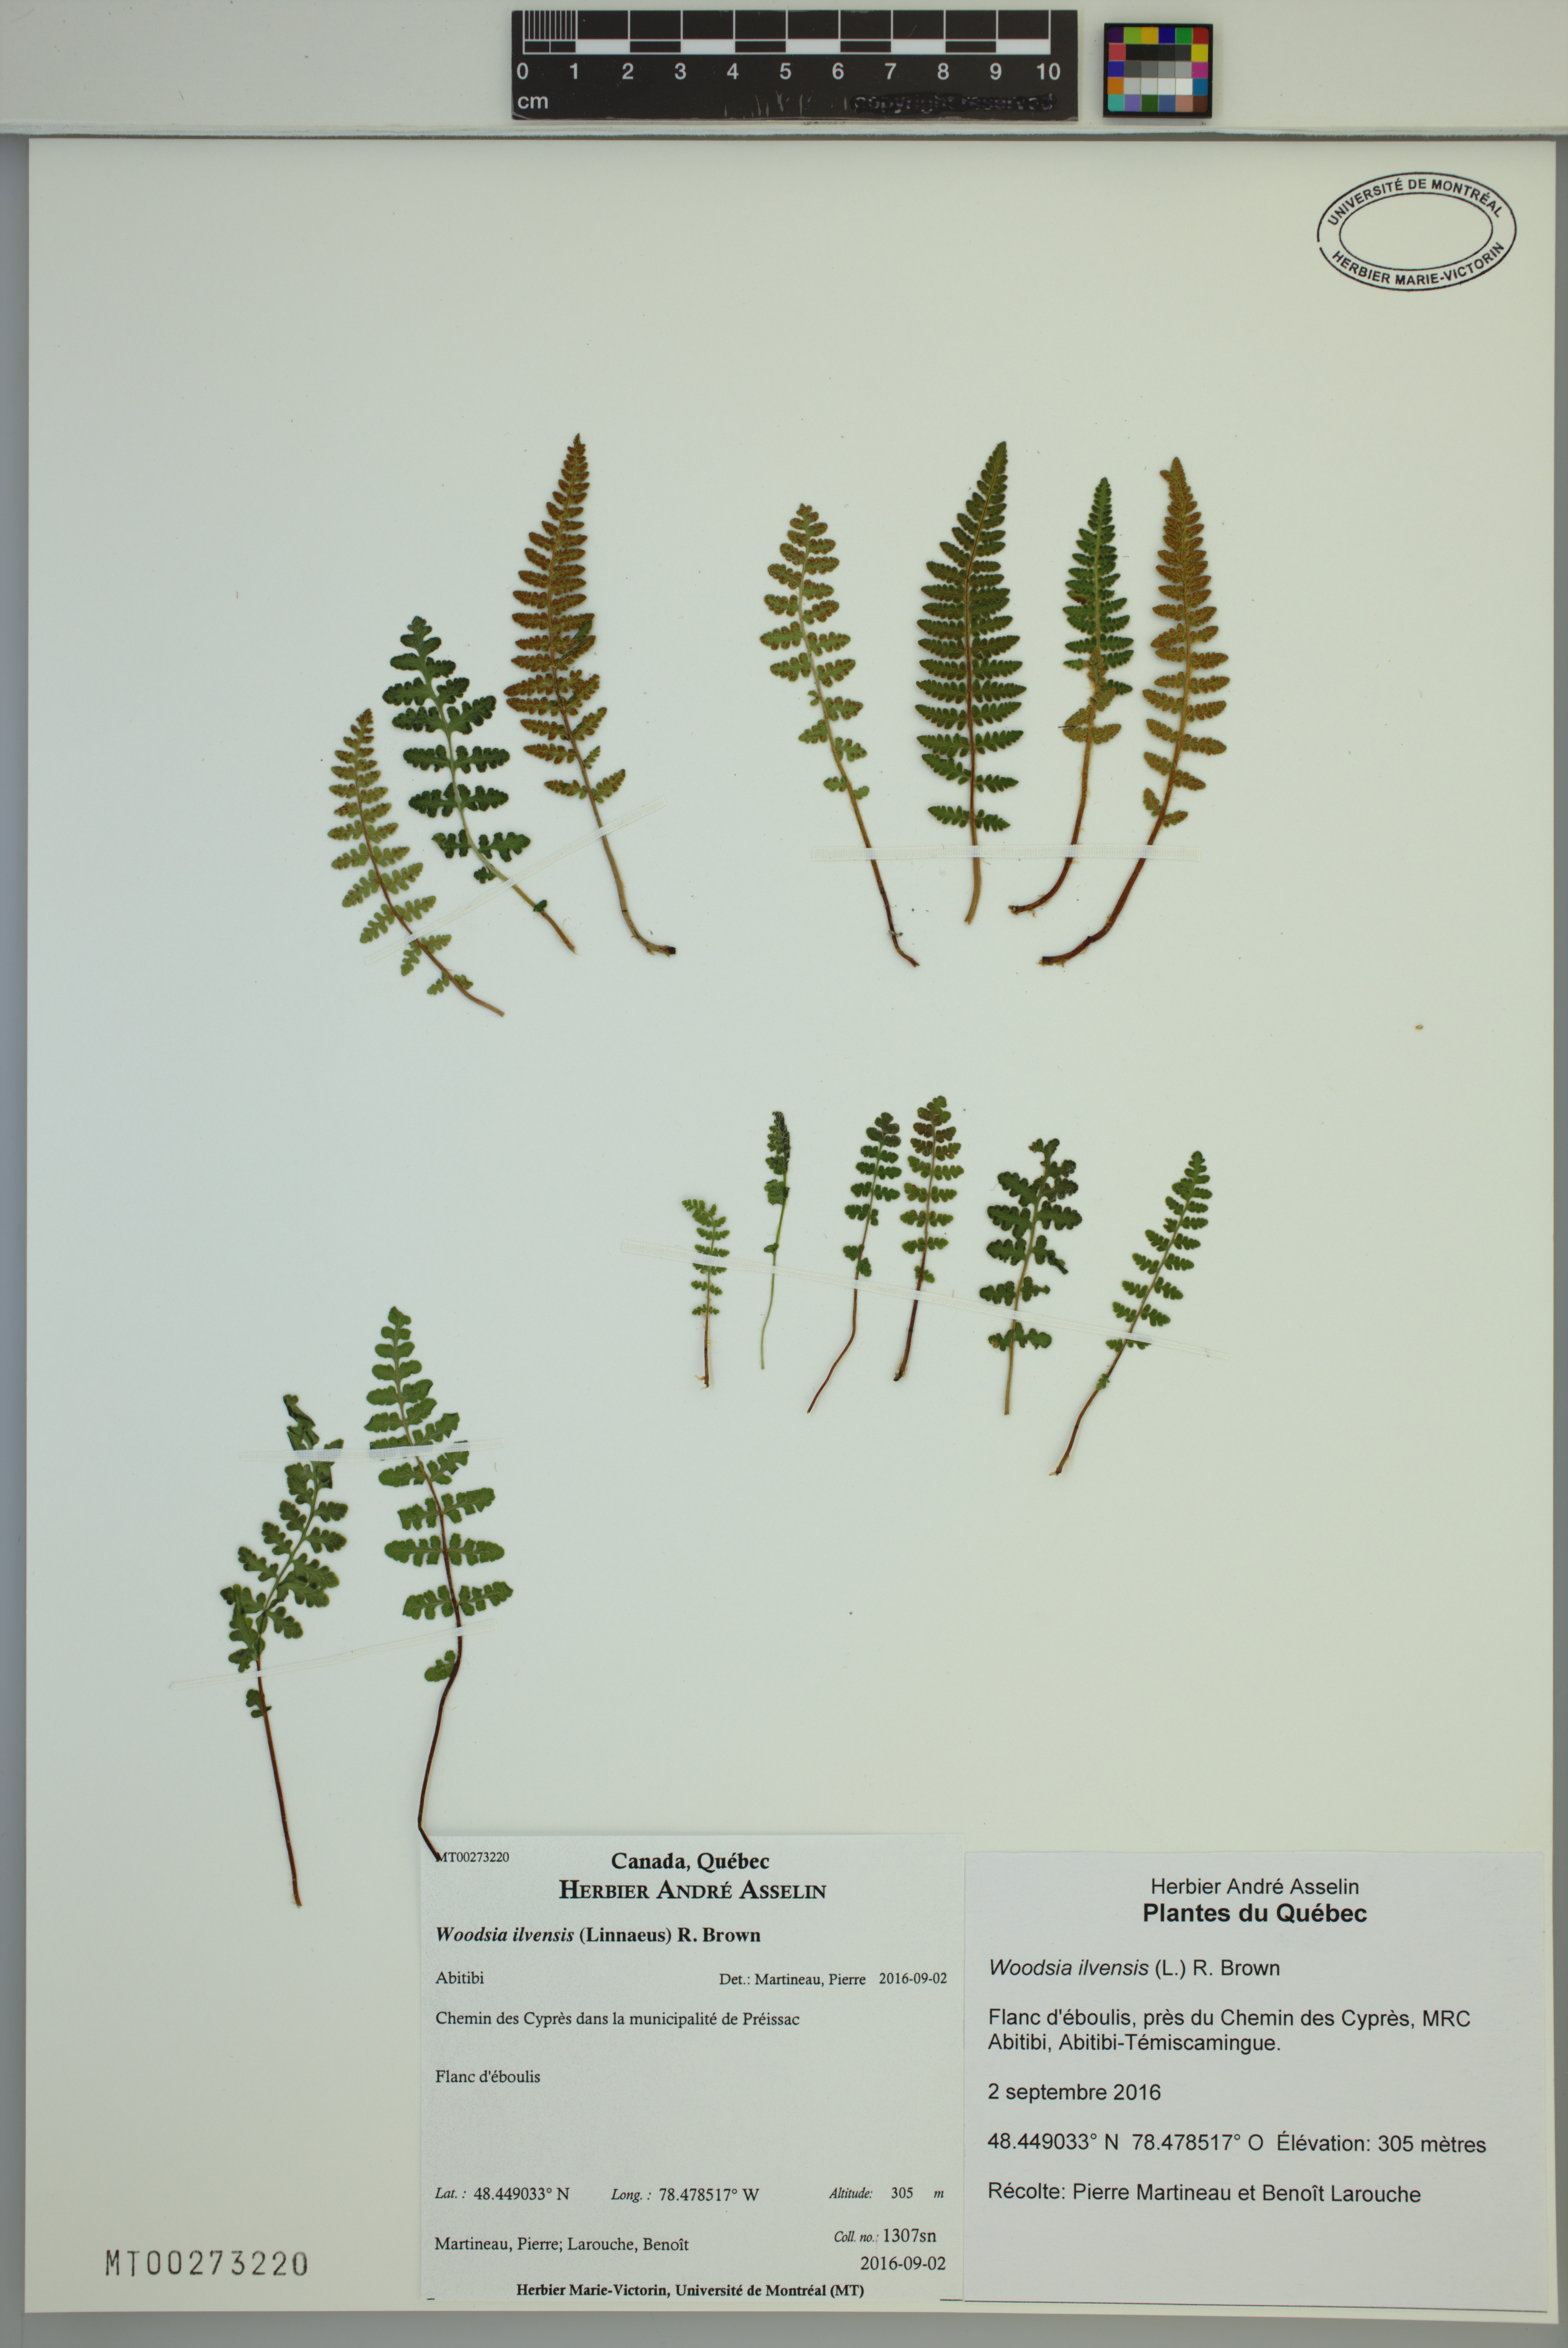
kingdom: Plantae
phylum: Tracheophyta
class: Polypodiopsida
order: Polypodiales
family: Woodsiaceae
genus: Woodsia
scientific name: Woodsia ilvensis
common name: Fragrant woodsia
